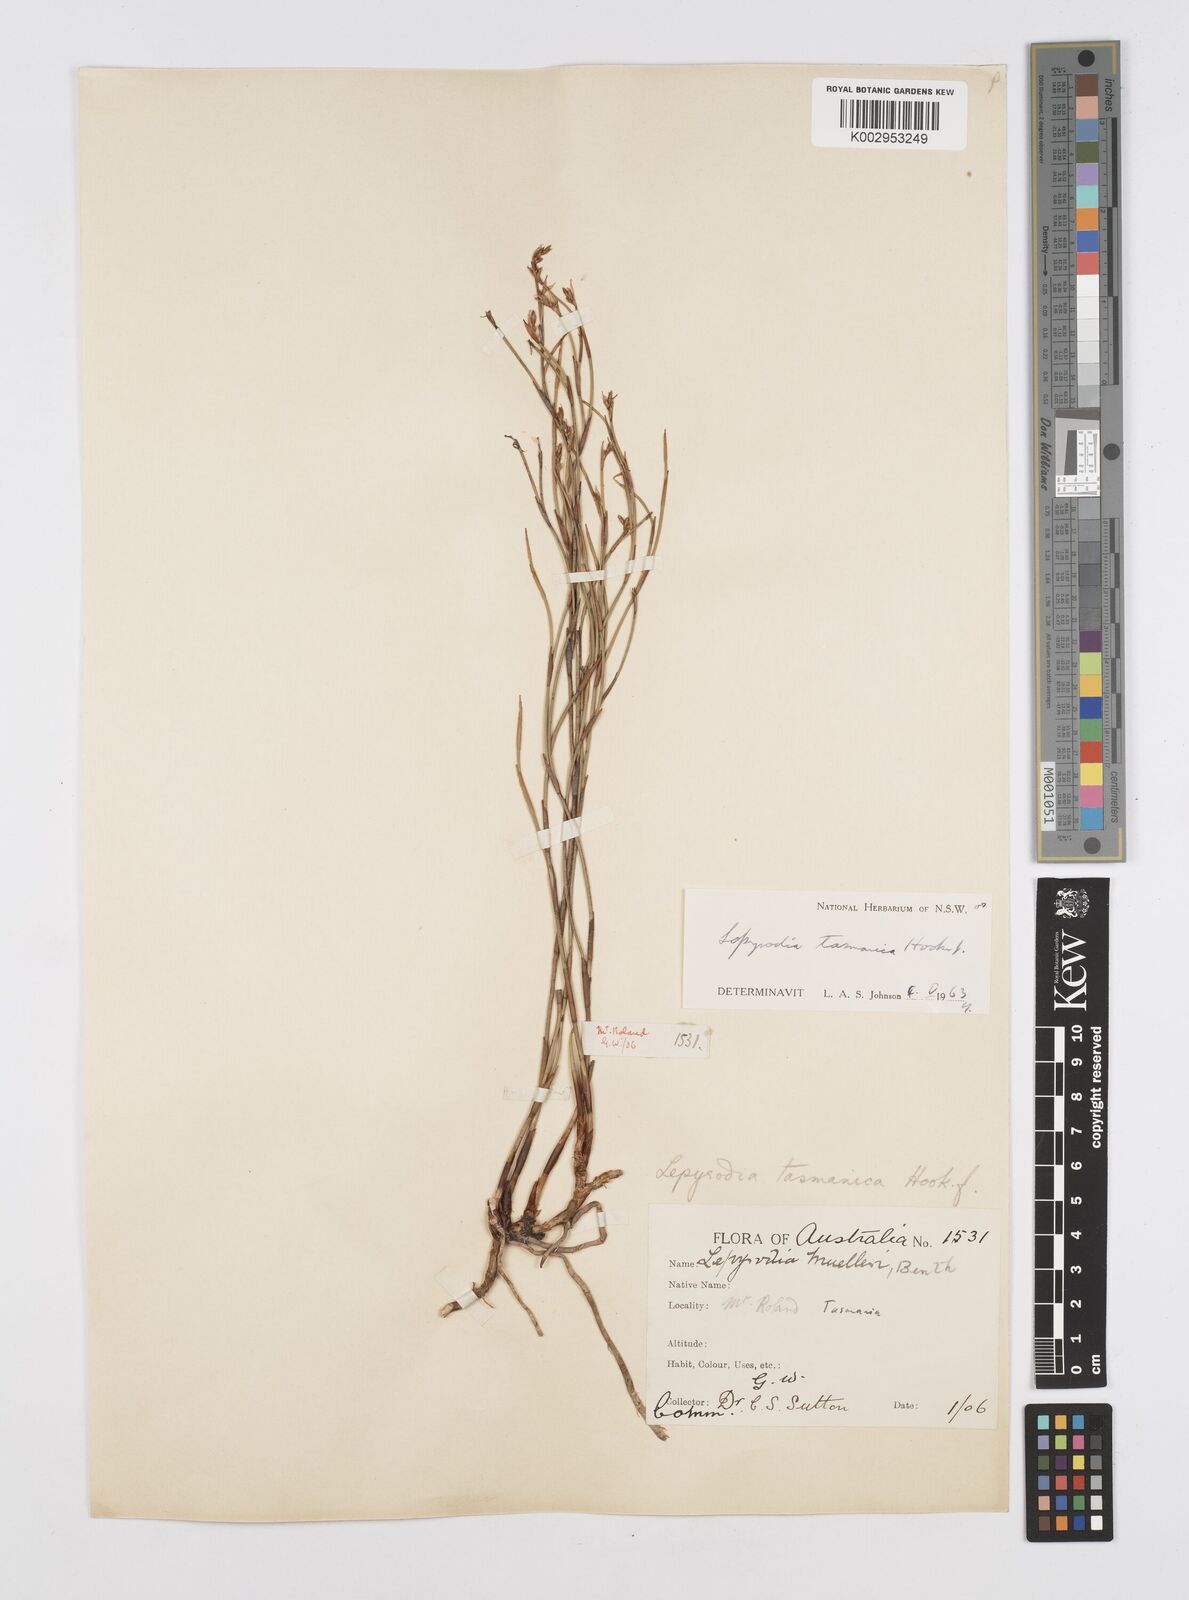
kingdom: Plantae
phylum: Tracheophyta
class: Liliopsida
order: Poales
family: Restionaceae
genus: Sporadanthus
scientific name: Sporadanthus tasmanicus
